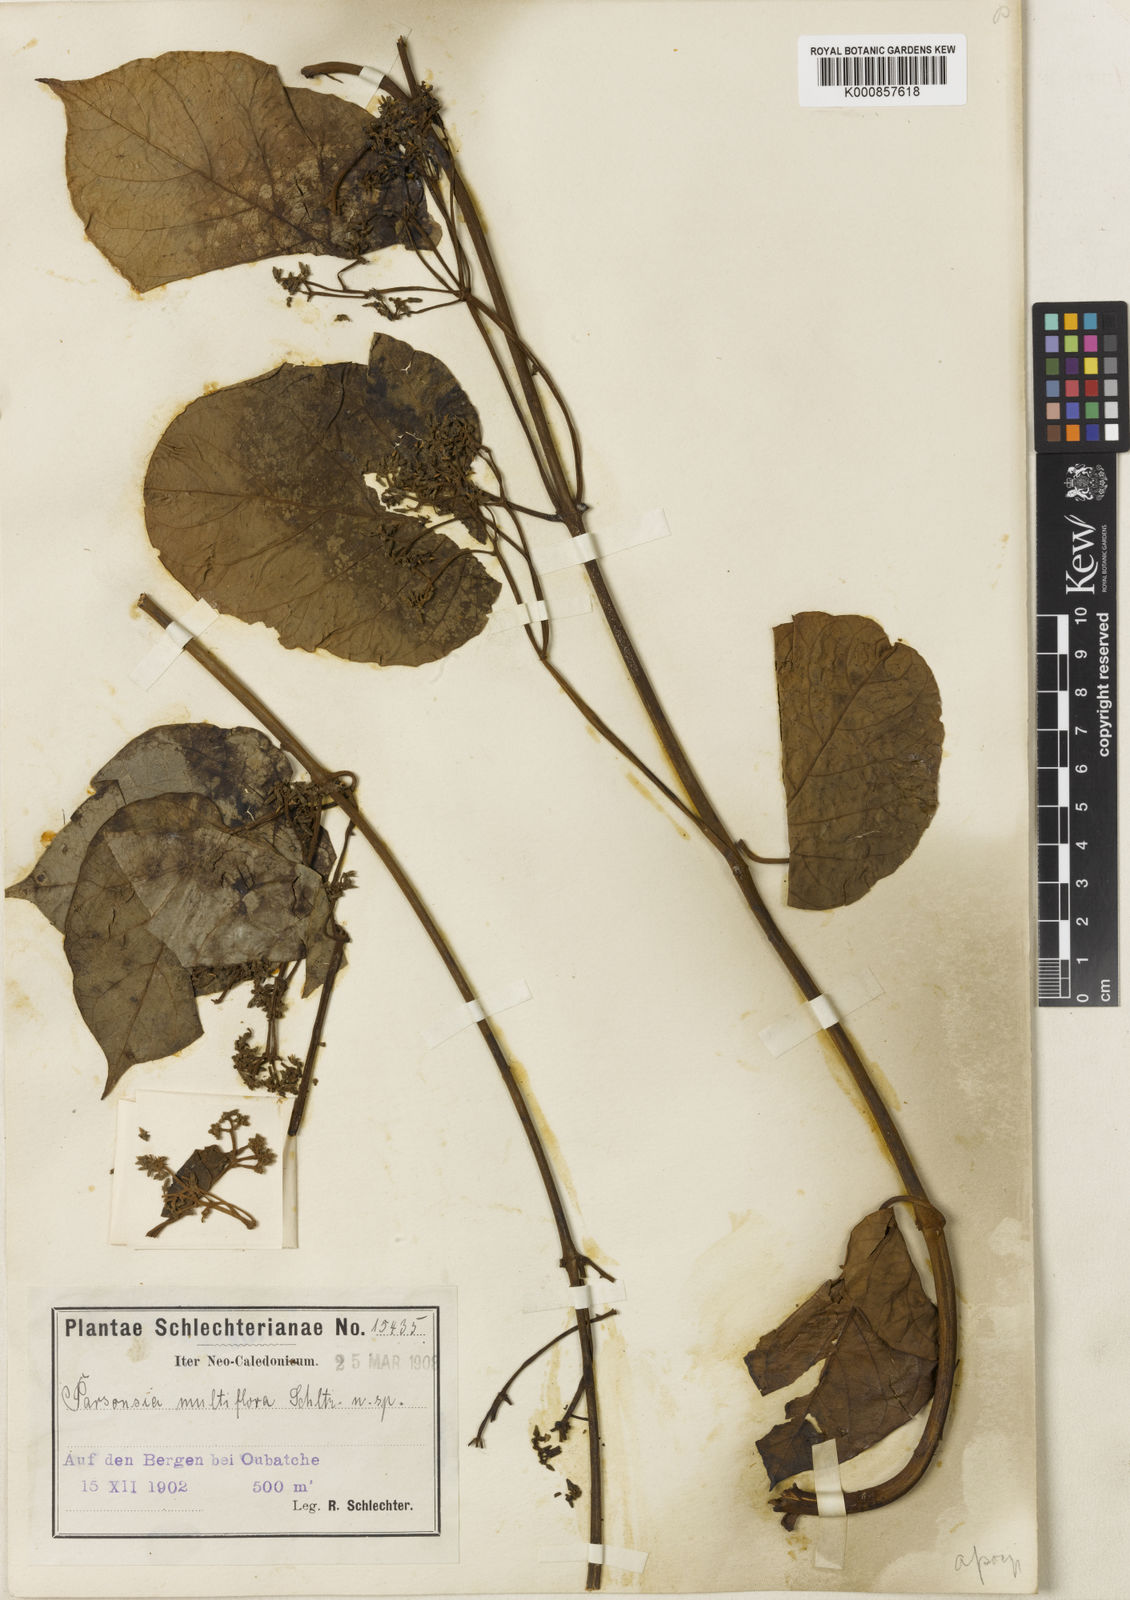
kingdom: Plantae
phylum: Tracheophyta
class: Magnoliopsida
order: Gentianales
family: Apocynaceae
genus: Parsonsia
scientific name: Parsonsia affinis
